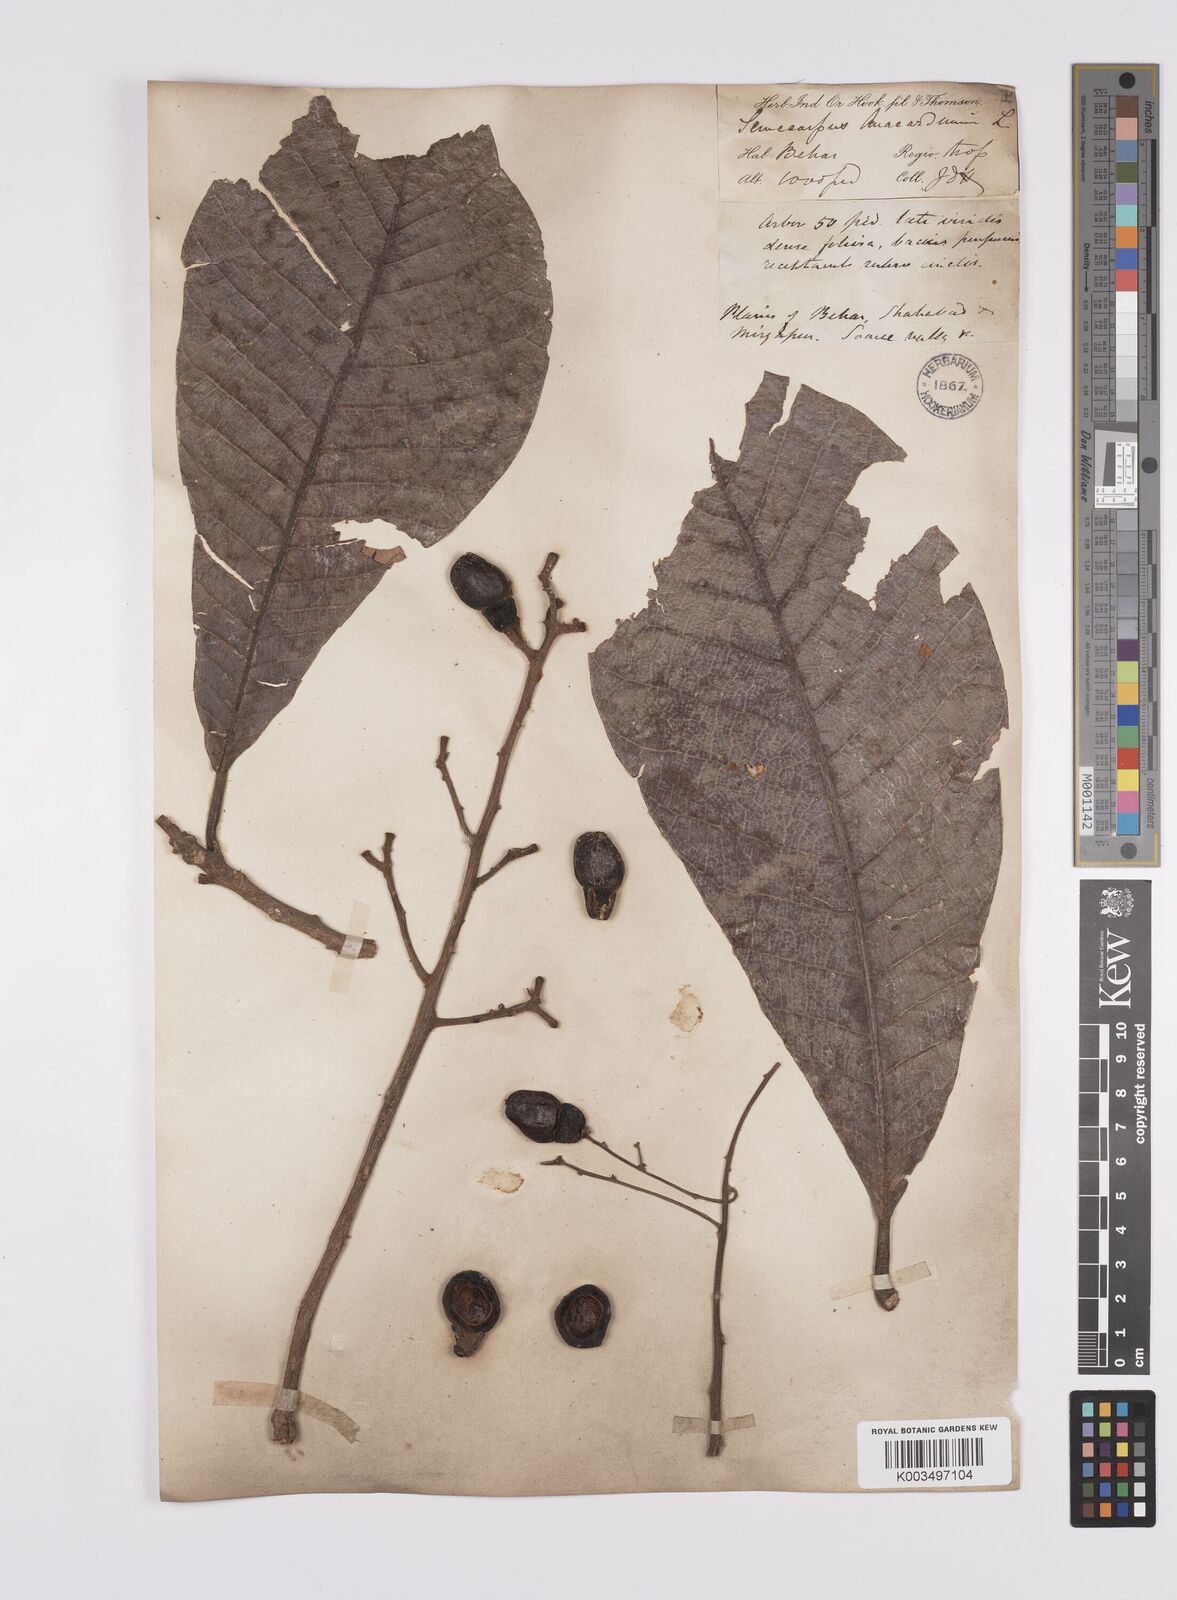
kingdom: Plantae
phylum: Tracheophyta
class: Magnoliopsida
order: Sapindales
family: Anacardiaceae
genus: Semecarpus
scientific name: Semecarpus anacardium
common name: Marking nut-tree
